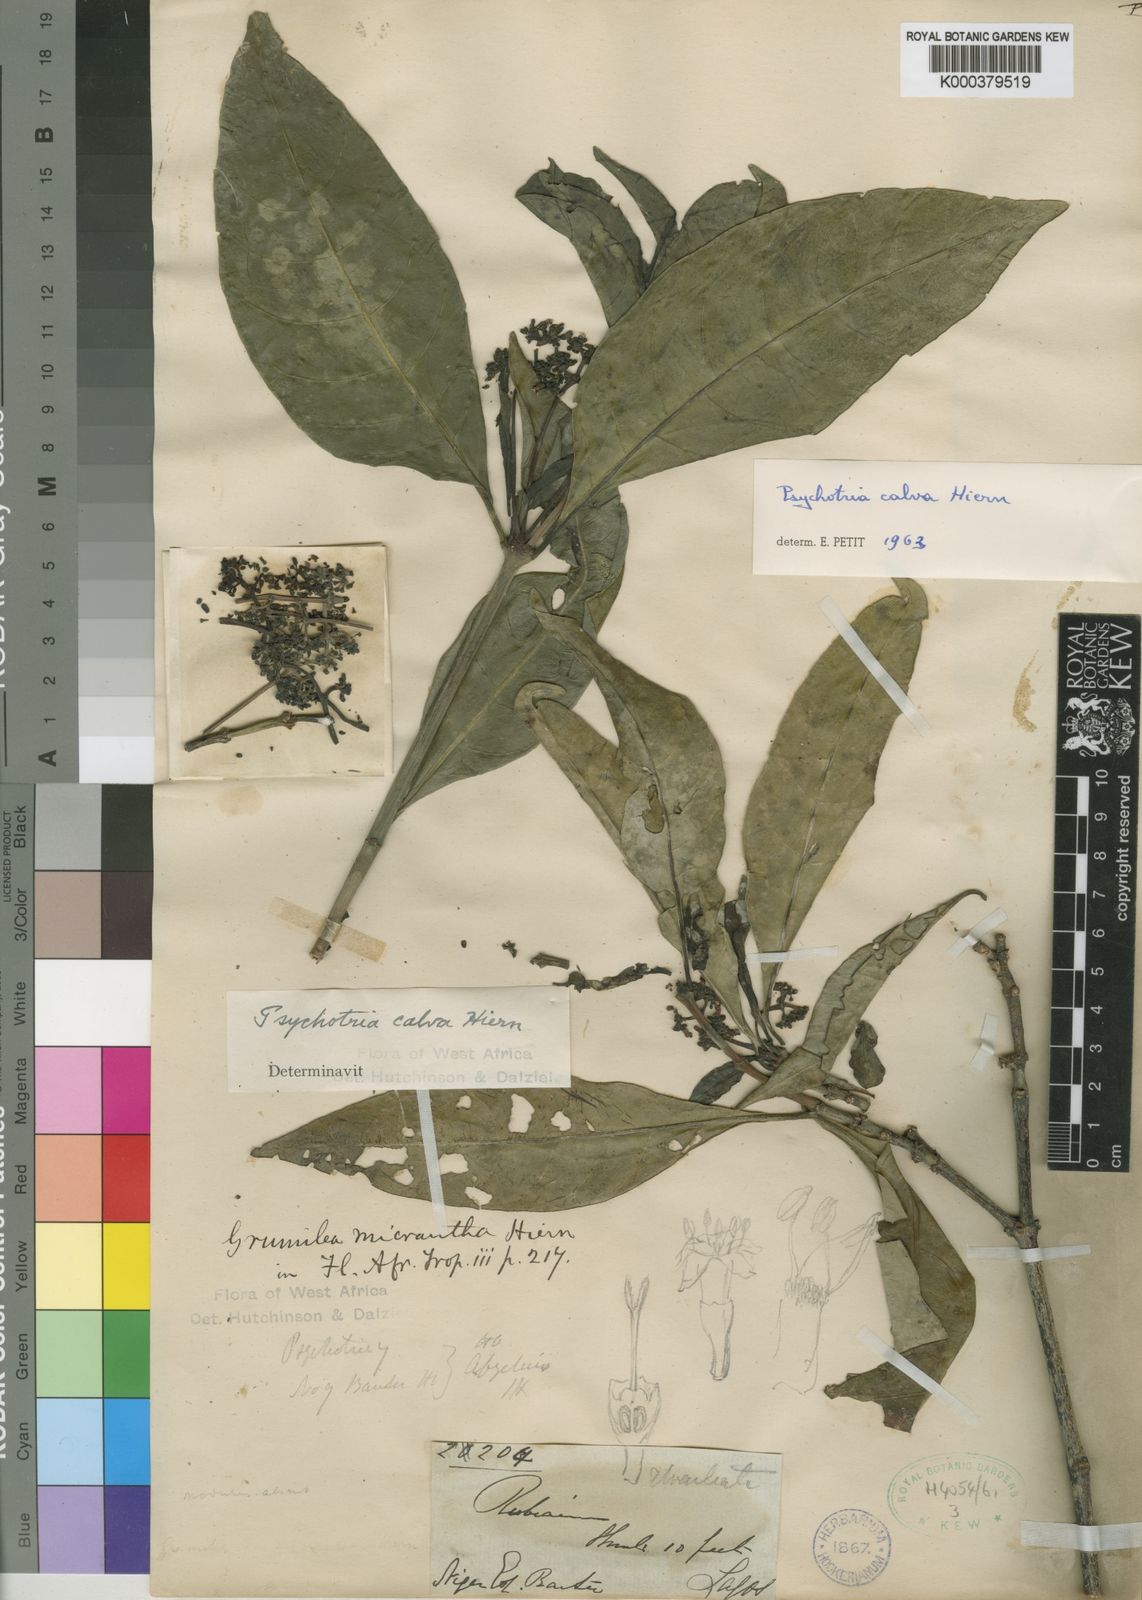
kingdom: Plantae
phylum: Tracheophyta
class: Magnoliopsida
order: Gentianales
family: Rubiaceae
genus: Psychotria
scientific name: Psychotria calva
